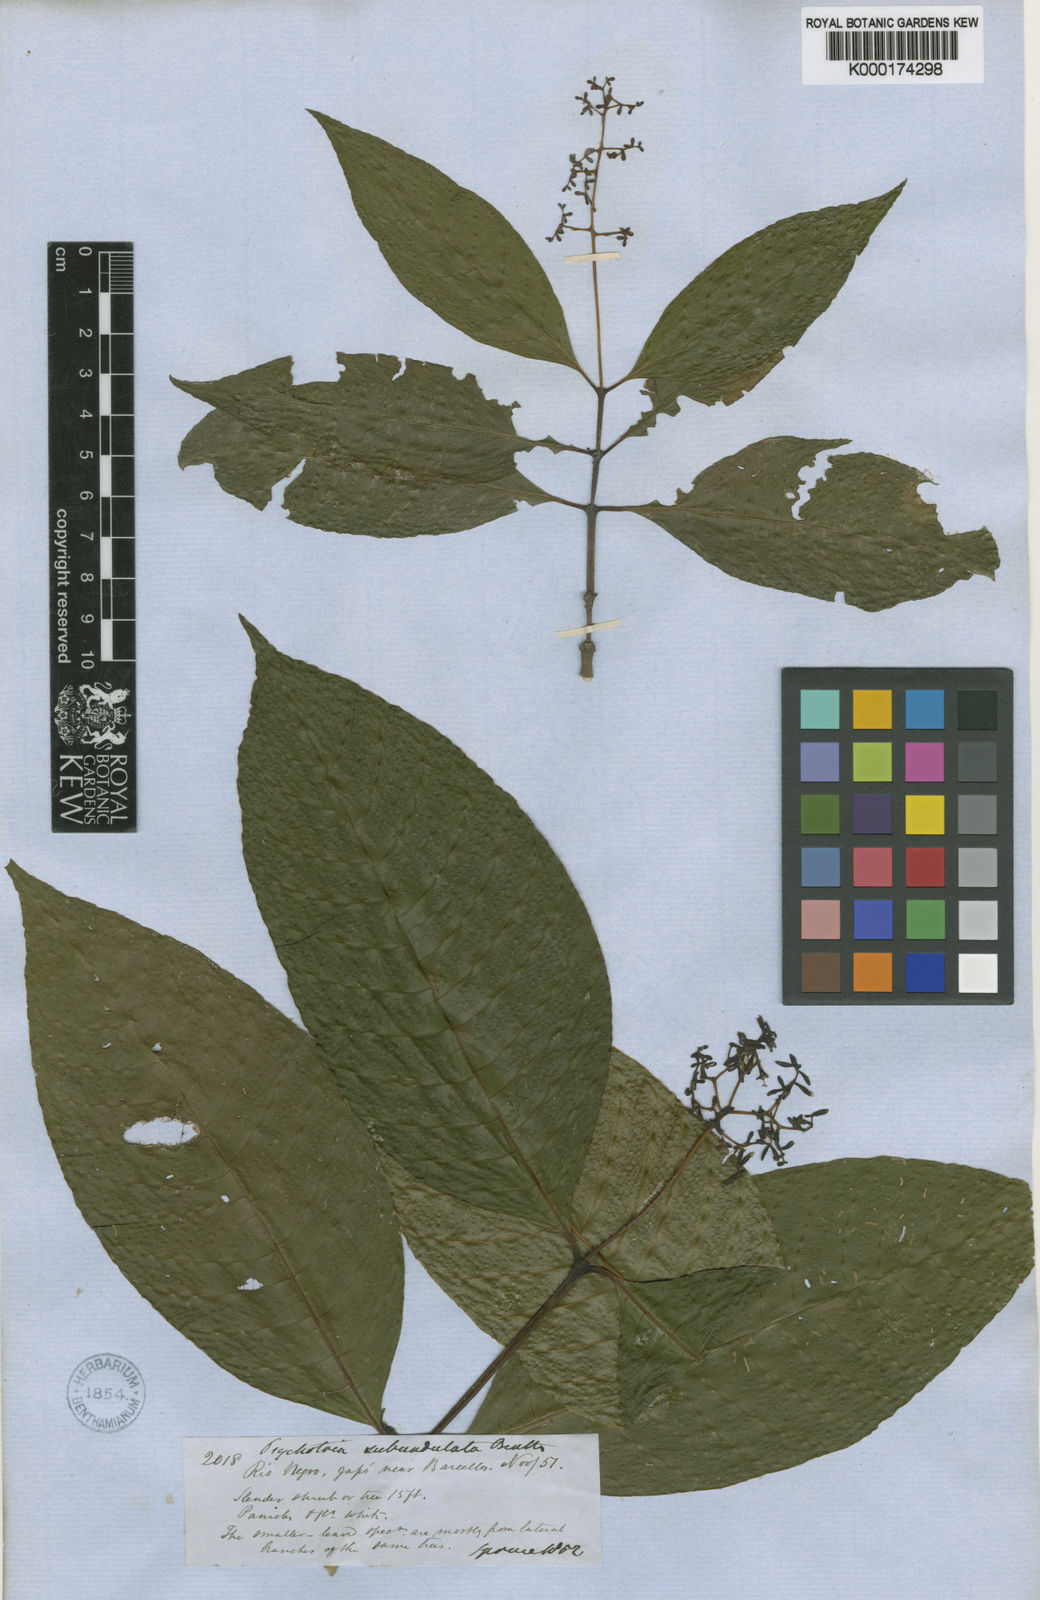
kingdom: Plantae
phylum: Tracheophyta
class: Magnoliopsida
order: Gentianales
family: Rubiaceae
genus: Palicourea
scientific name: Palicourea goyazensis
